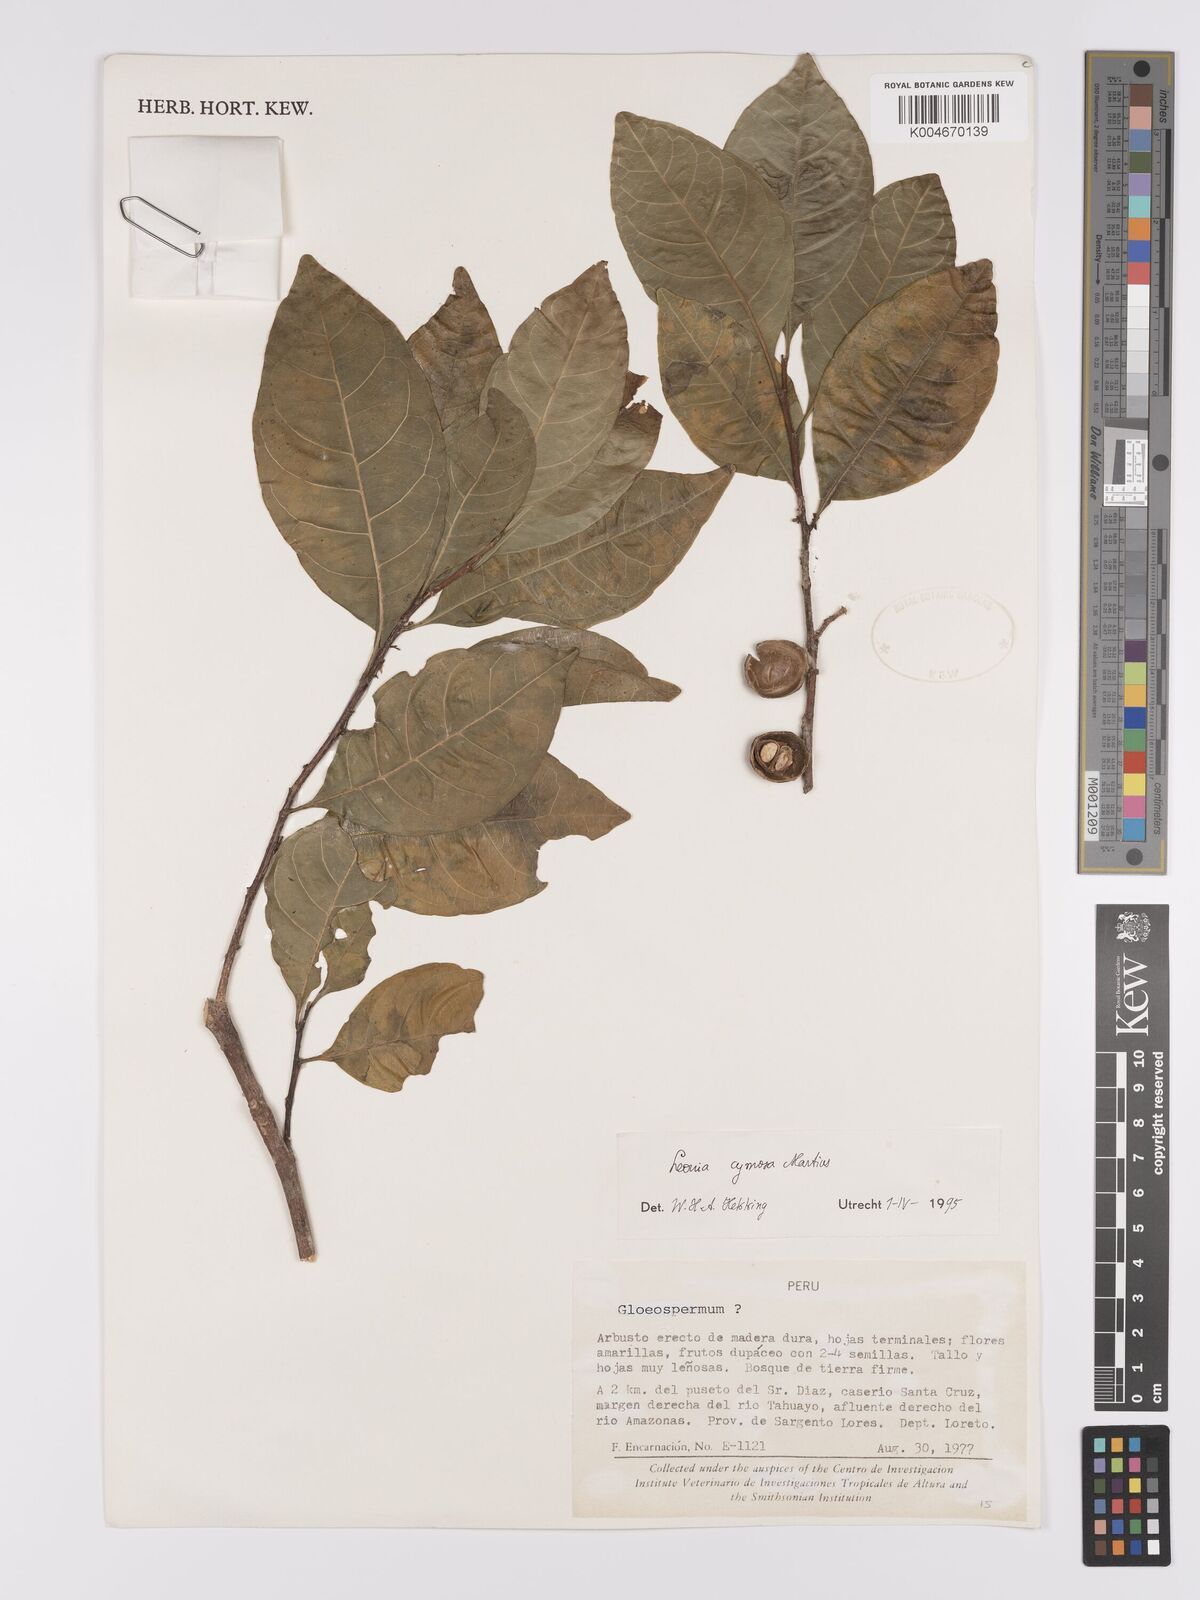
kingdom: Plantae
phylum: Tracheophyta
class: Magnoliopsida
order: Malpighiales
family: Violaceae
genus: Leonia
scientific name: Leonia cymosa
